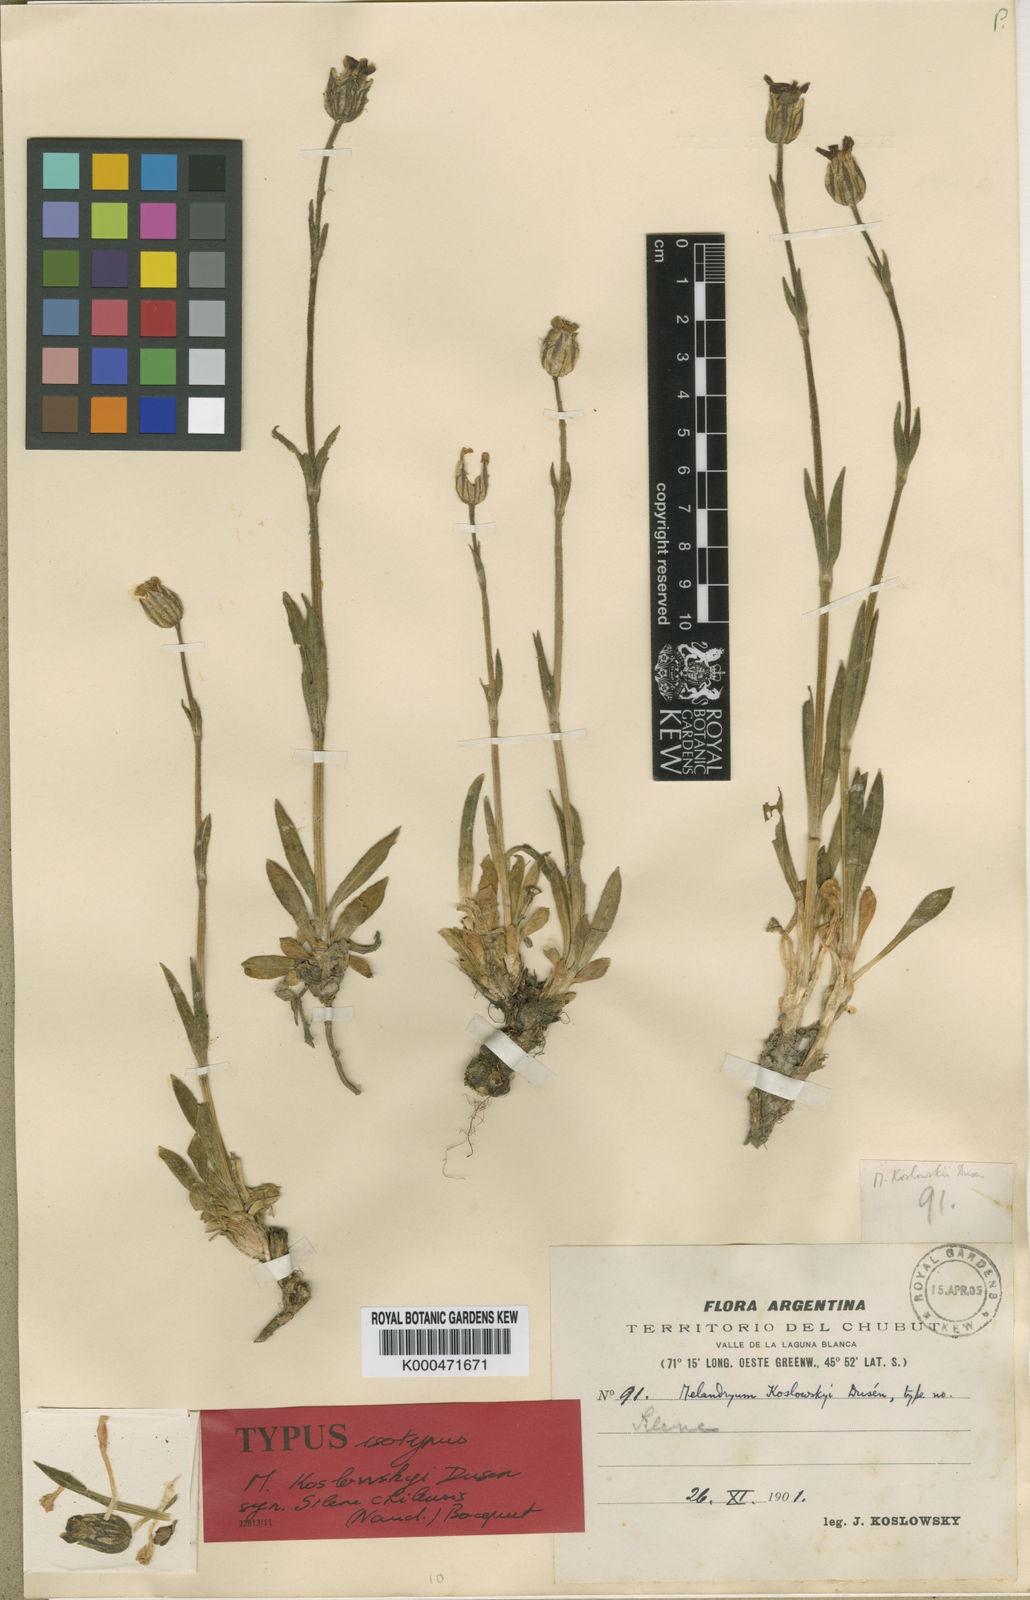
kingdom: Plantae
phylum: Tracheophyta
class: Magnoliopsida
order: Caryophyllales
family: Caryophyllaceae
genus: Silene
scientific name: Silene chilensis
